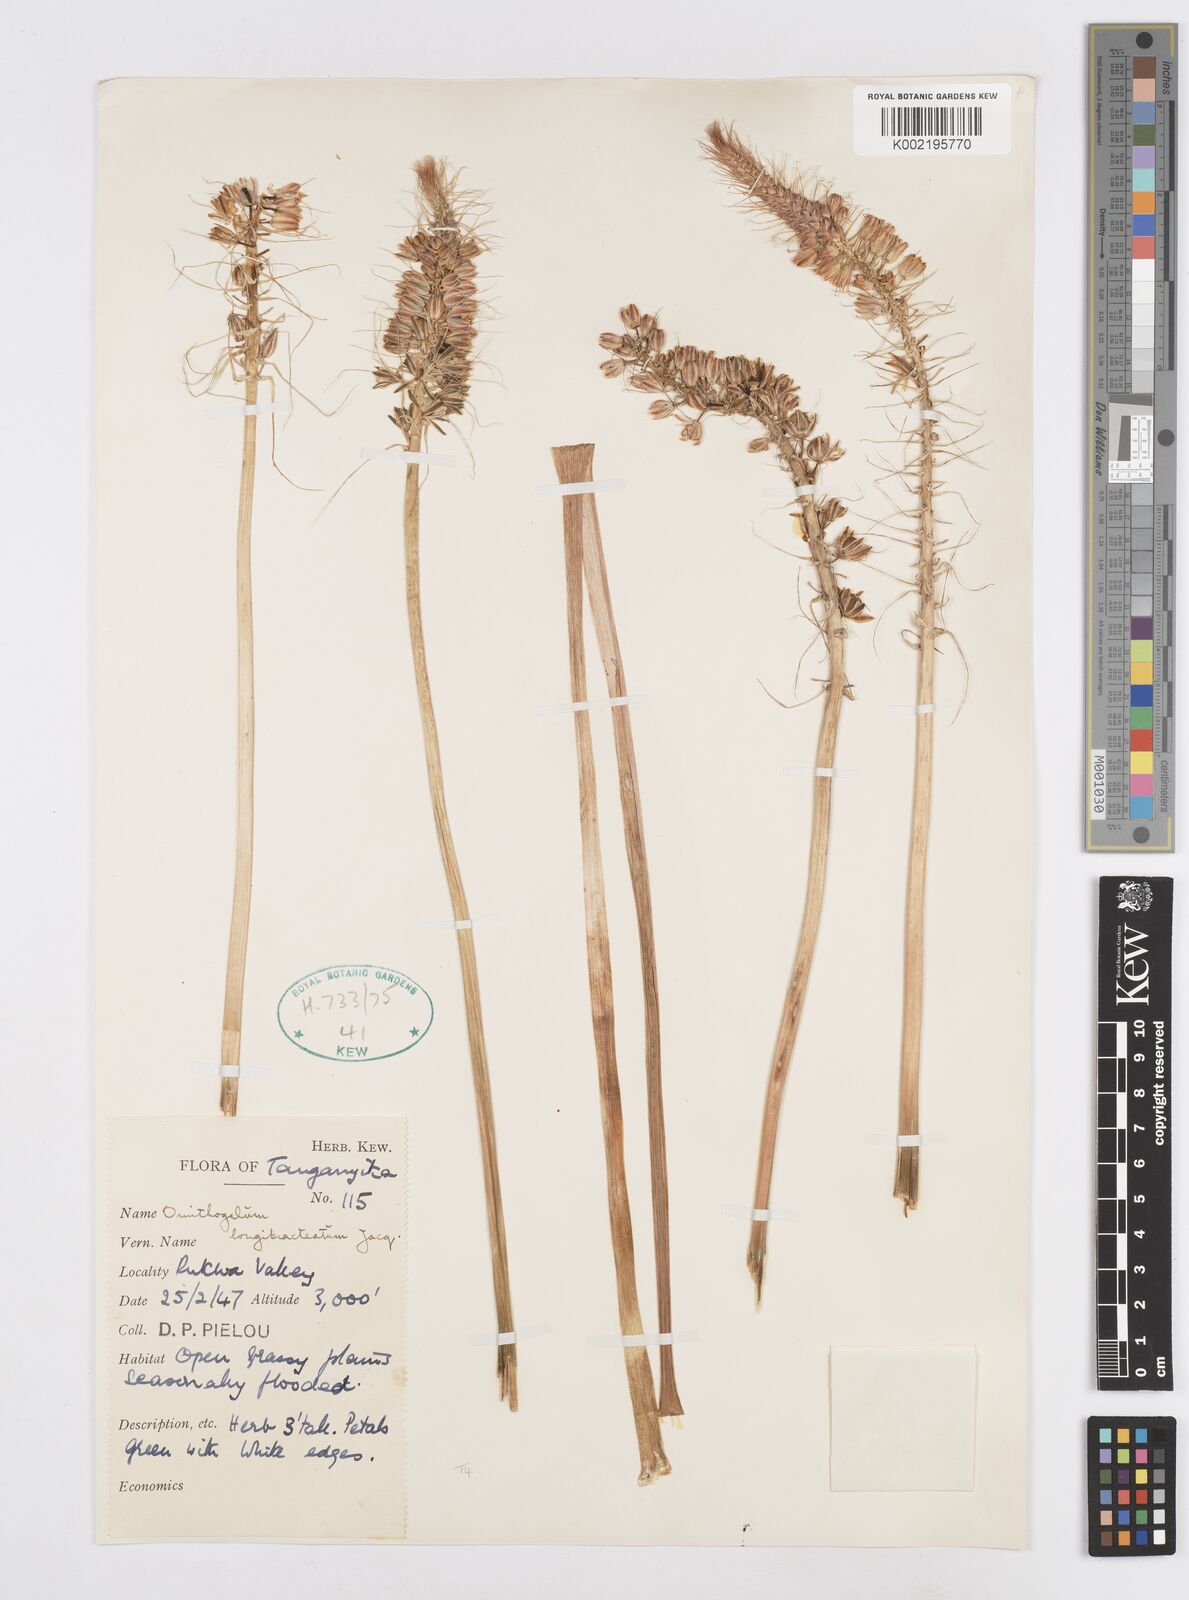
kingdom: Plantae
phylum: Tracheophyta
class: Liliopsida
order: Asparagales
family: Asparagaceae
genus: Albuca
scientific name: Albuca bracteata
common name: Sea-onion
